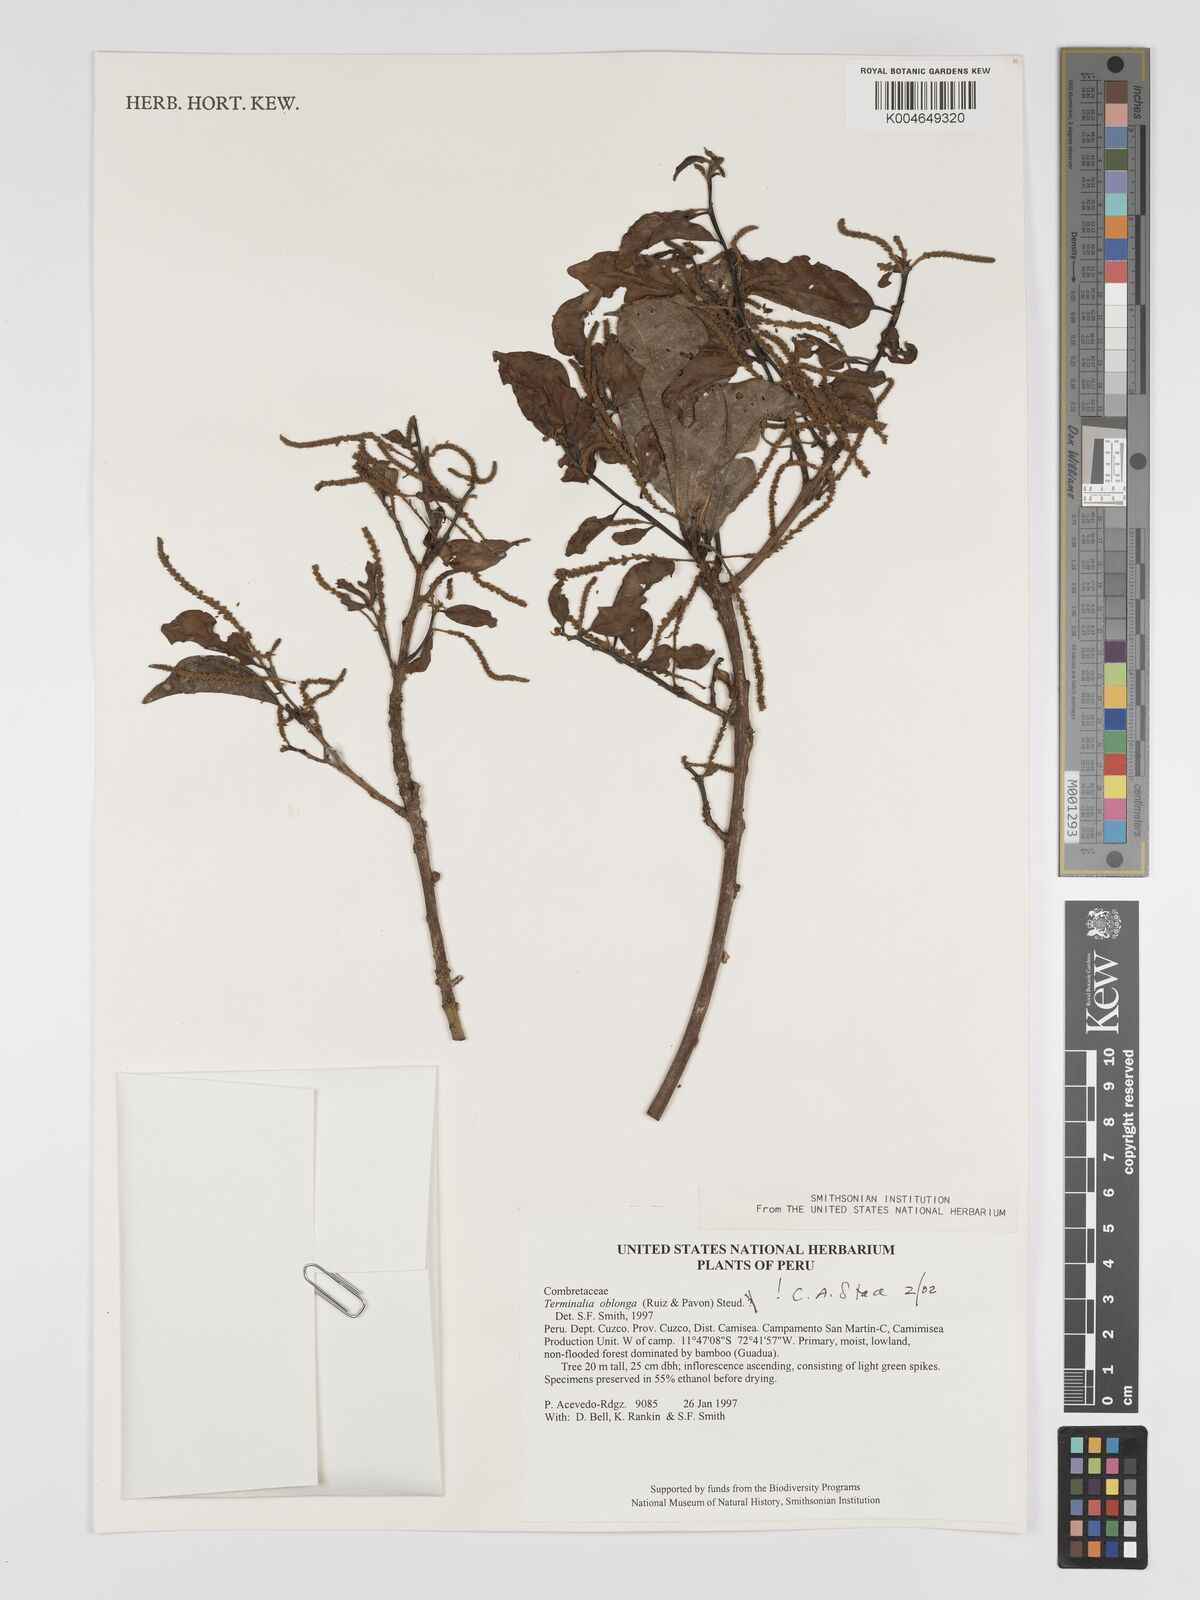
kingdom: Plantae
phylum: Tracheophyta
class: Magnoliopsida
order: Myrtales
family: Combretaceae
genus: Terminalia
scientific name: Terminalia oblonga
